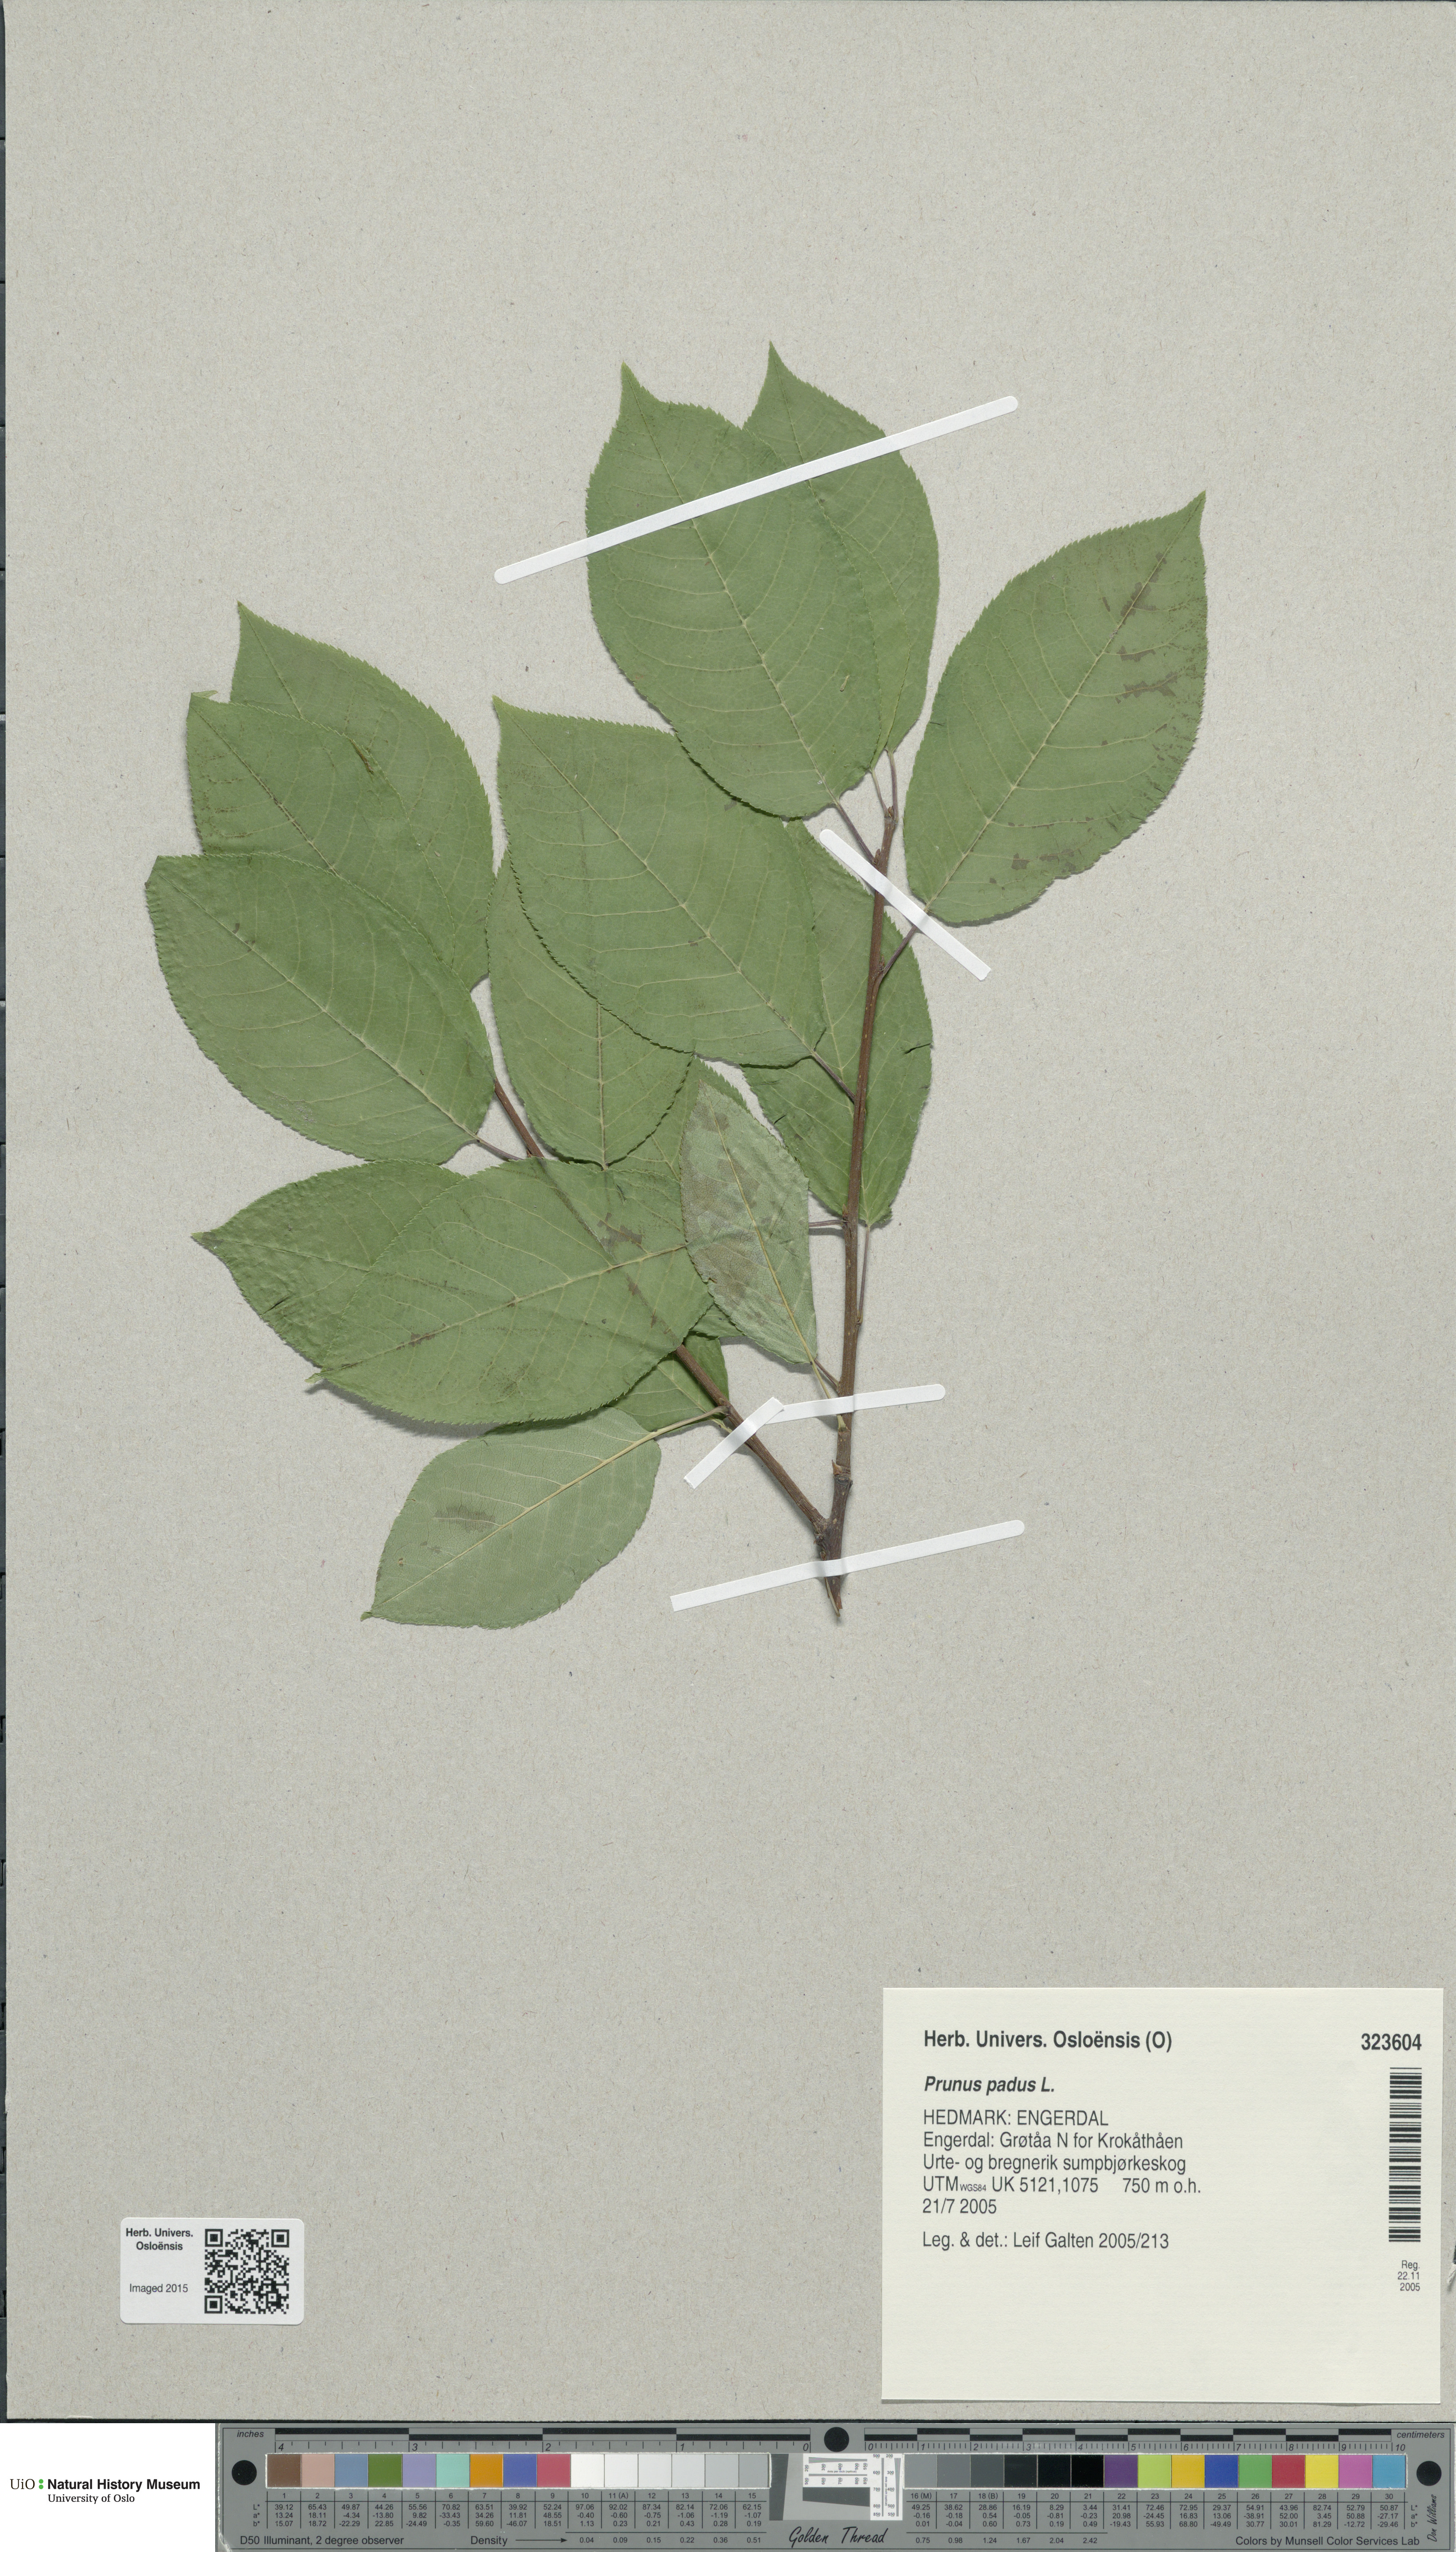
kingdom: Plantae
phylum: Tracheophyta
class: Magnoliopsida
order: Rosales
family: Rosaceae
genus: Prunus
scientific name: Prunus padus
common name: Bird cherry
